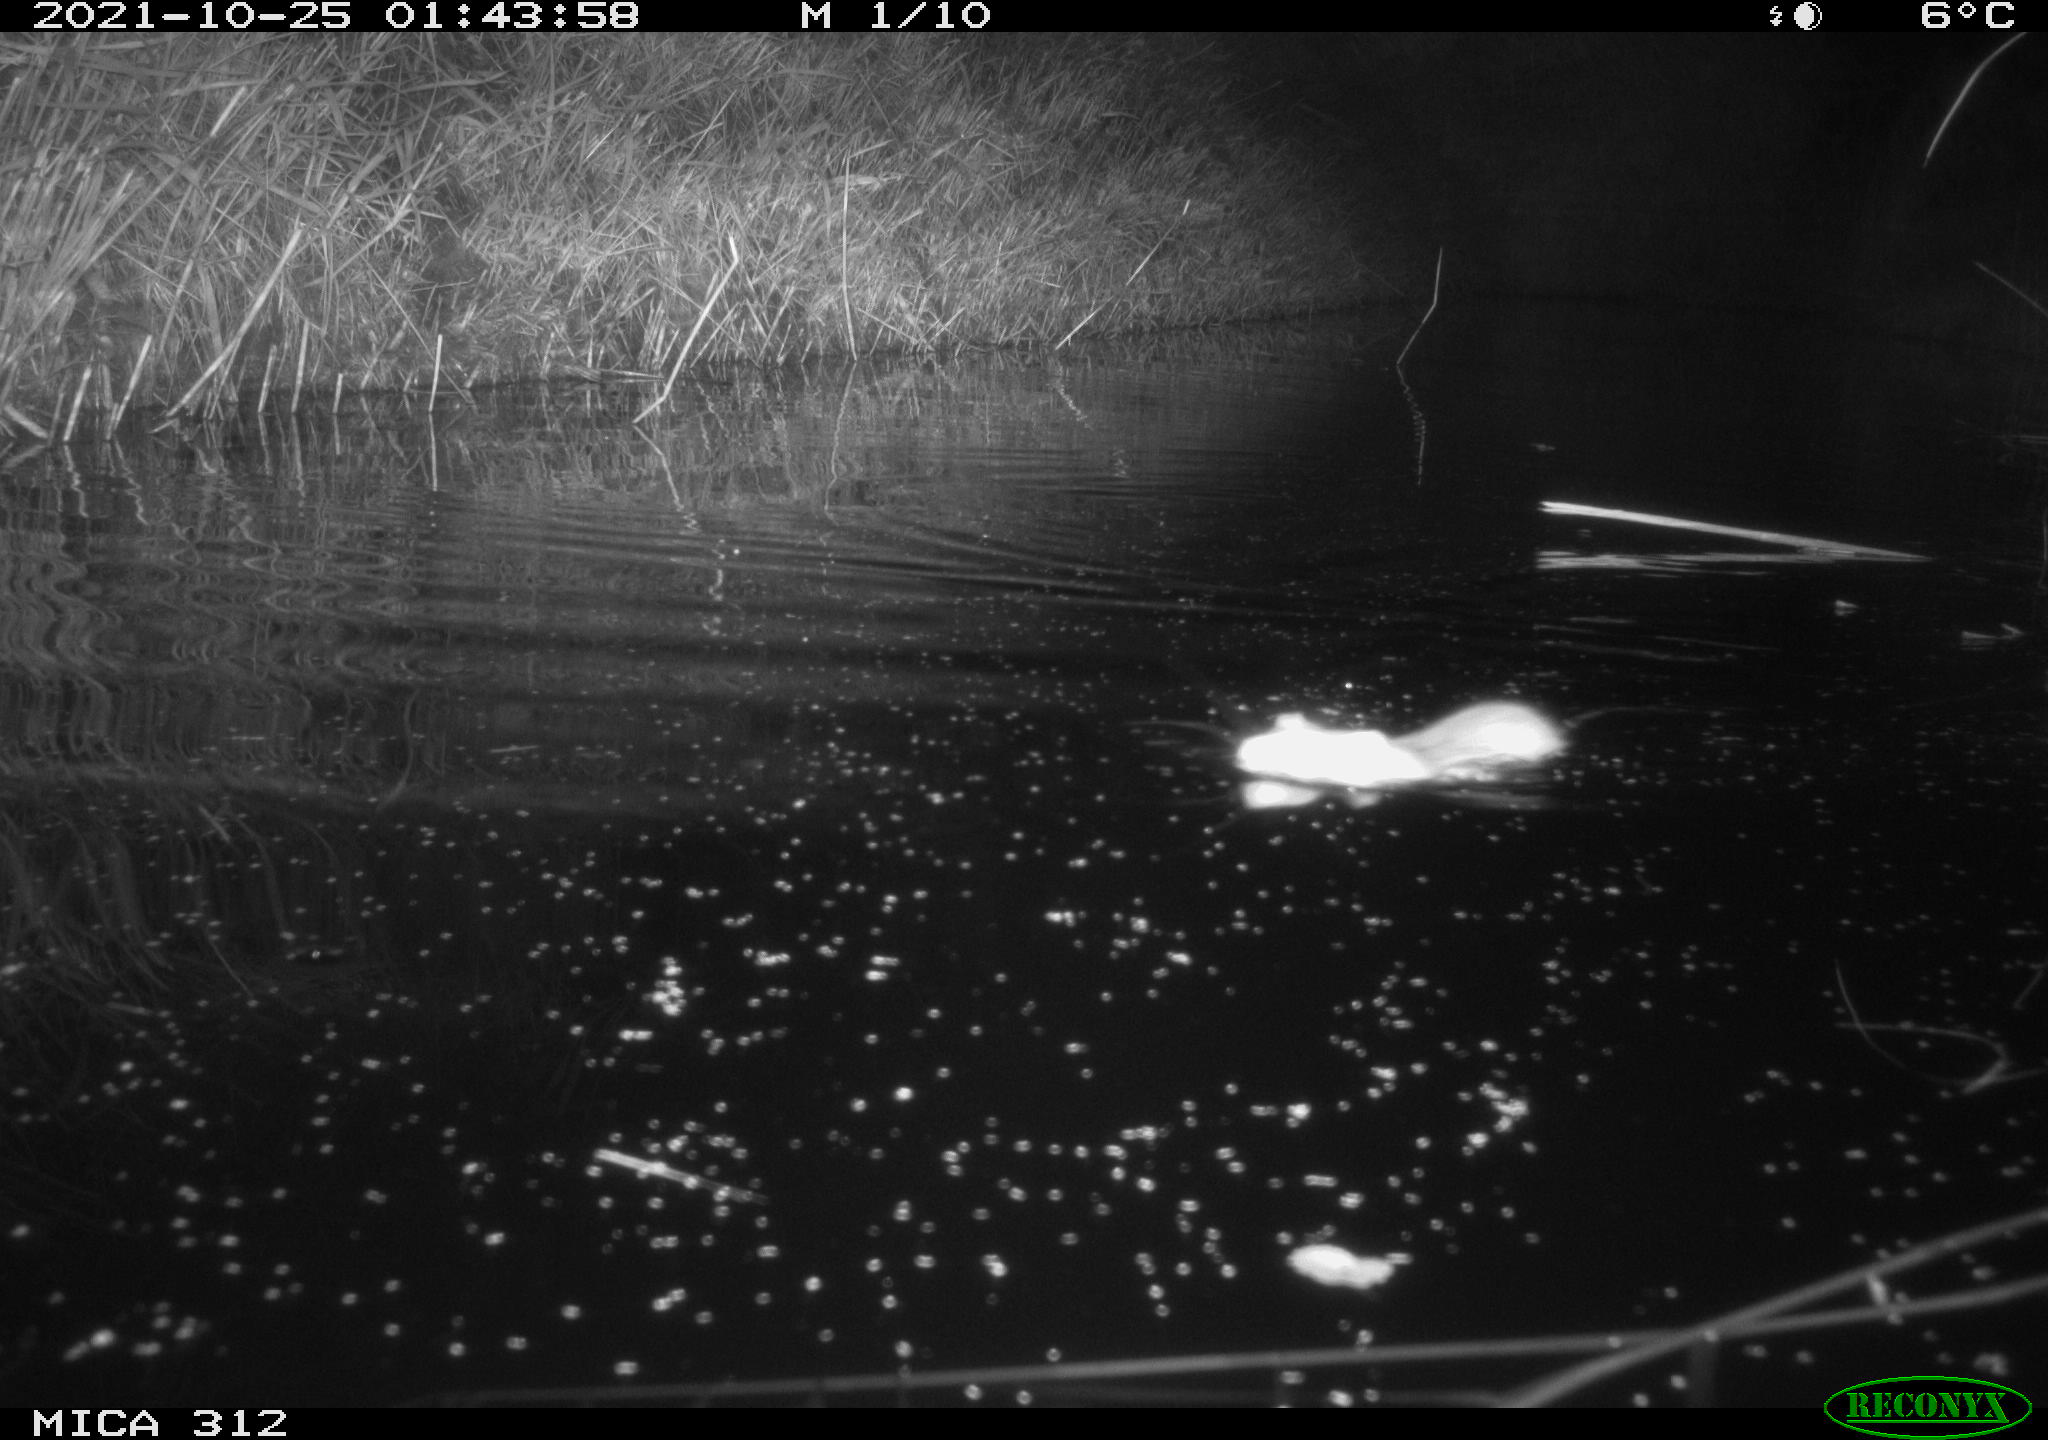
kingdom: Animalia
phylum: Chordata
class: Mammalia
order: Rodentia
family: Muridae
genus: Rattus
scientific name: Rattus norvegicus
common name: Brown rat
